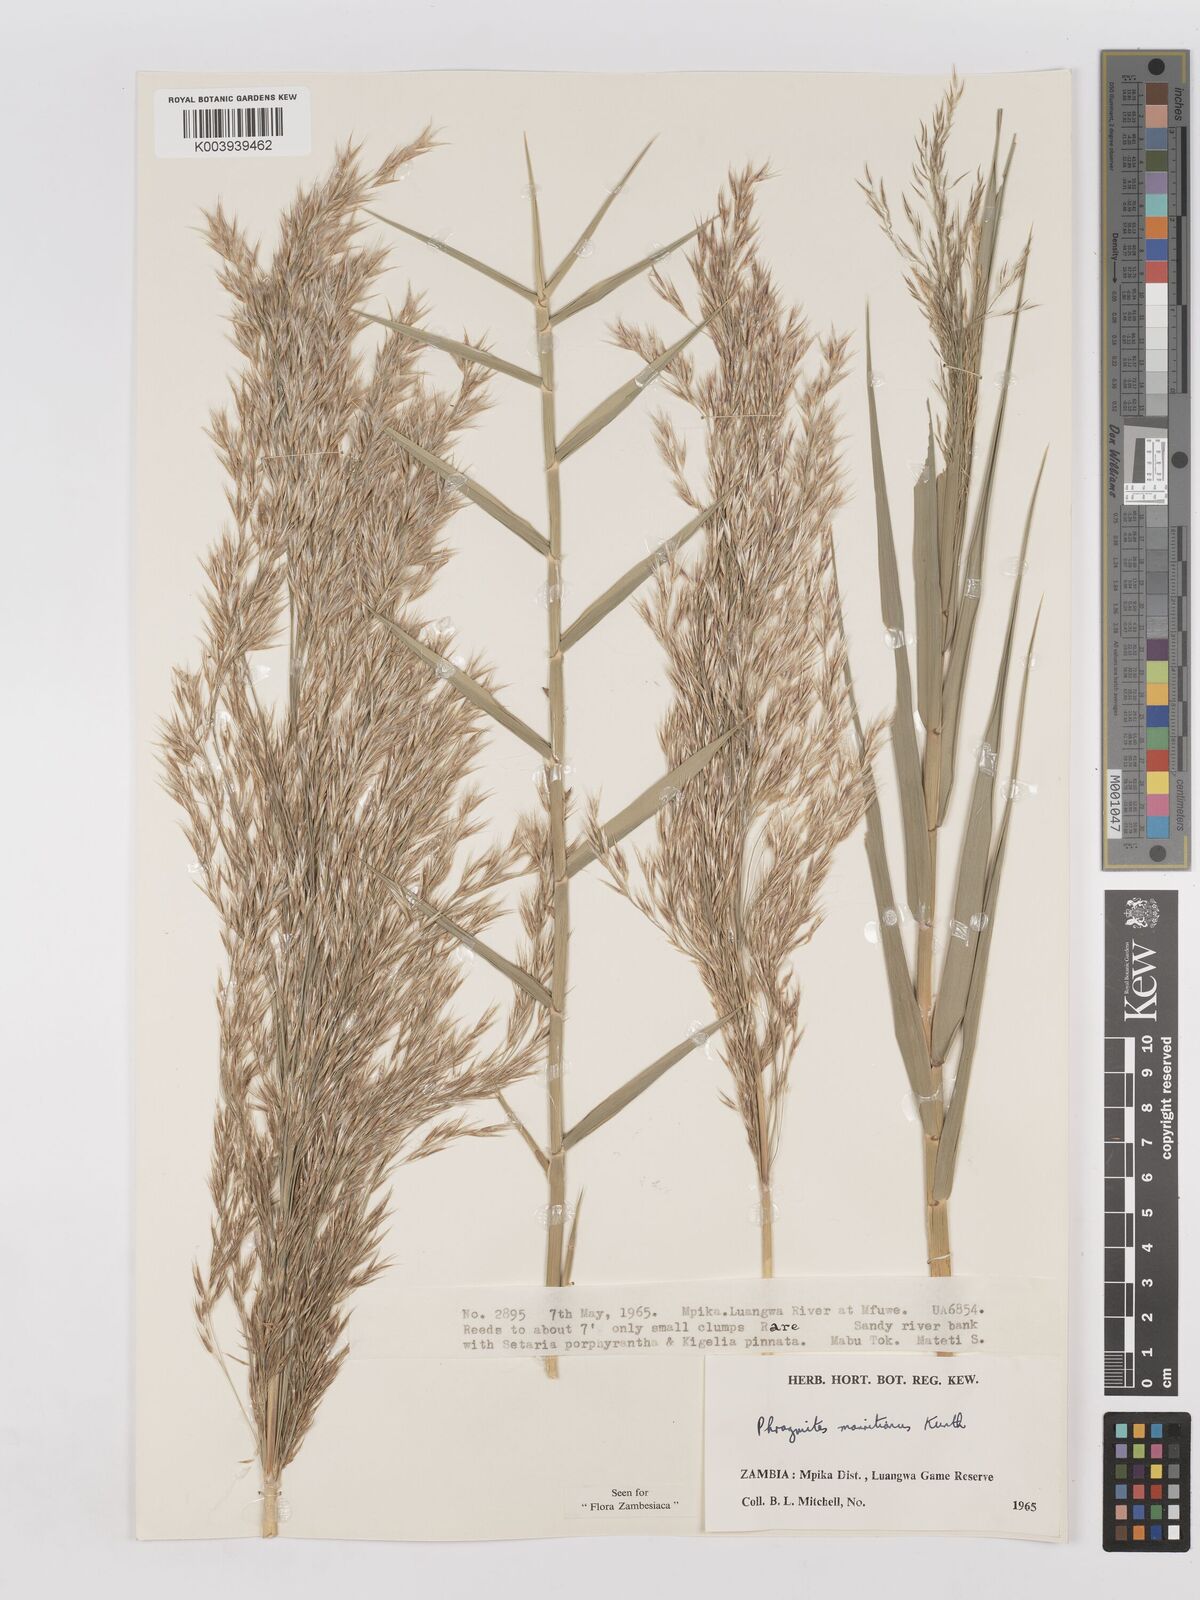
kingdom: Plantae
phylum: Tracheophyta
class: Liliopsida
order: Poales
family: Poaceae
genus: Phragmites
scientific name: Phragmites mauritianus
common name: Reed grass
